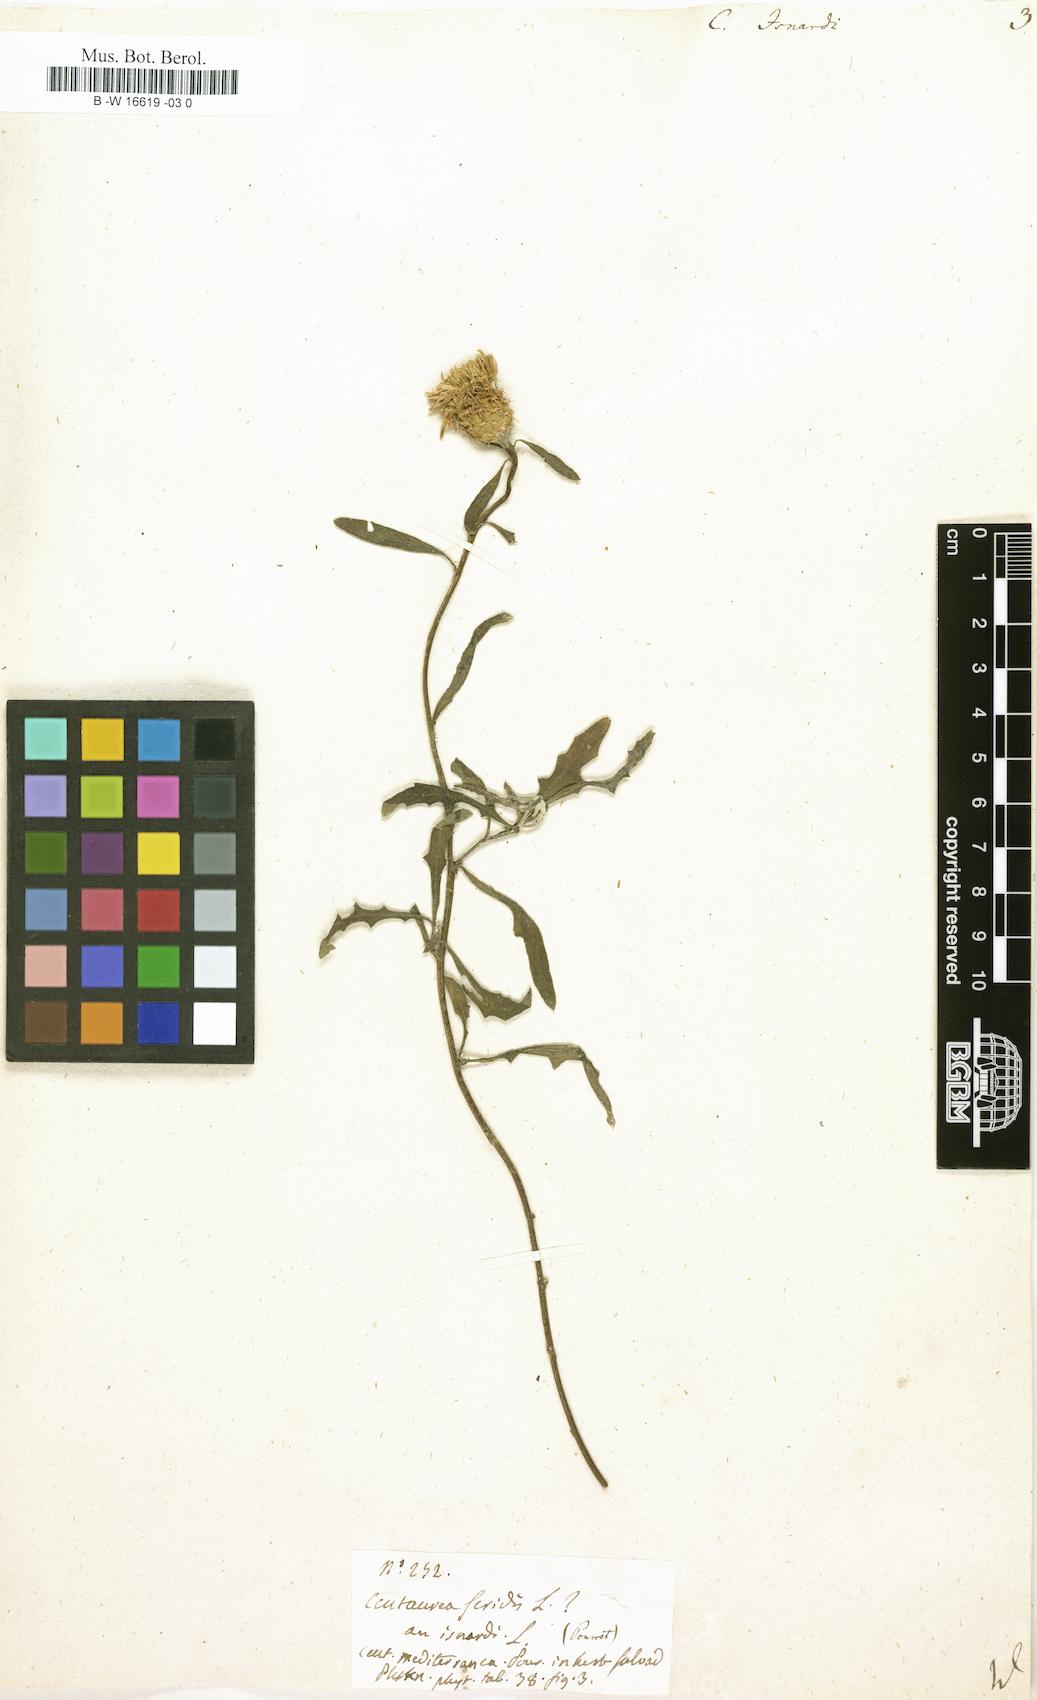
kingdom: Plantae
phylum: Tracheophyta
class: Magnoliopsida
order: Asterales
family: Asteraceae
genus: Centaurea
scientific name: Centaurea aspera
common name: Rough star-thistle
